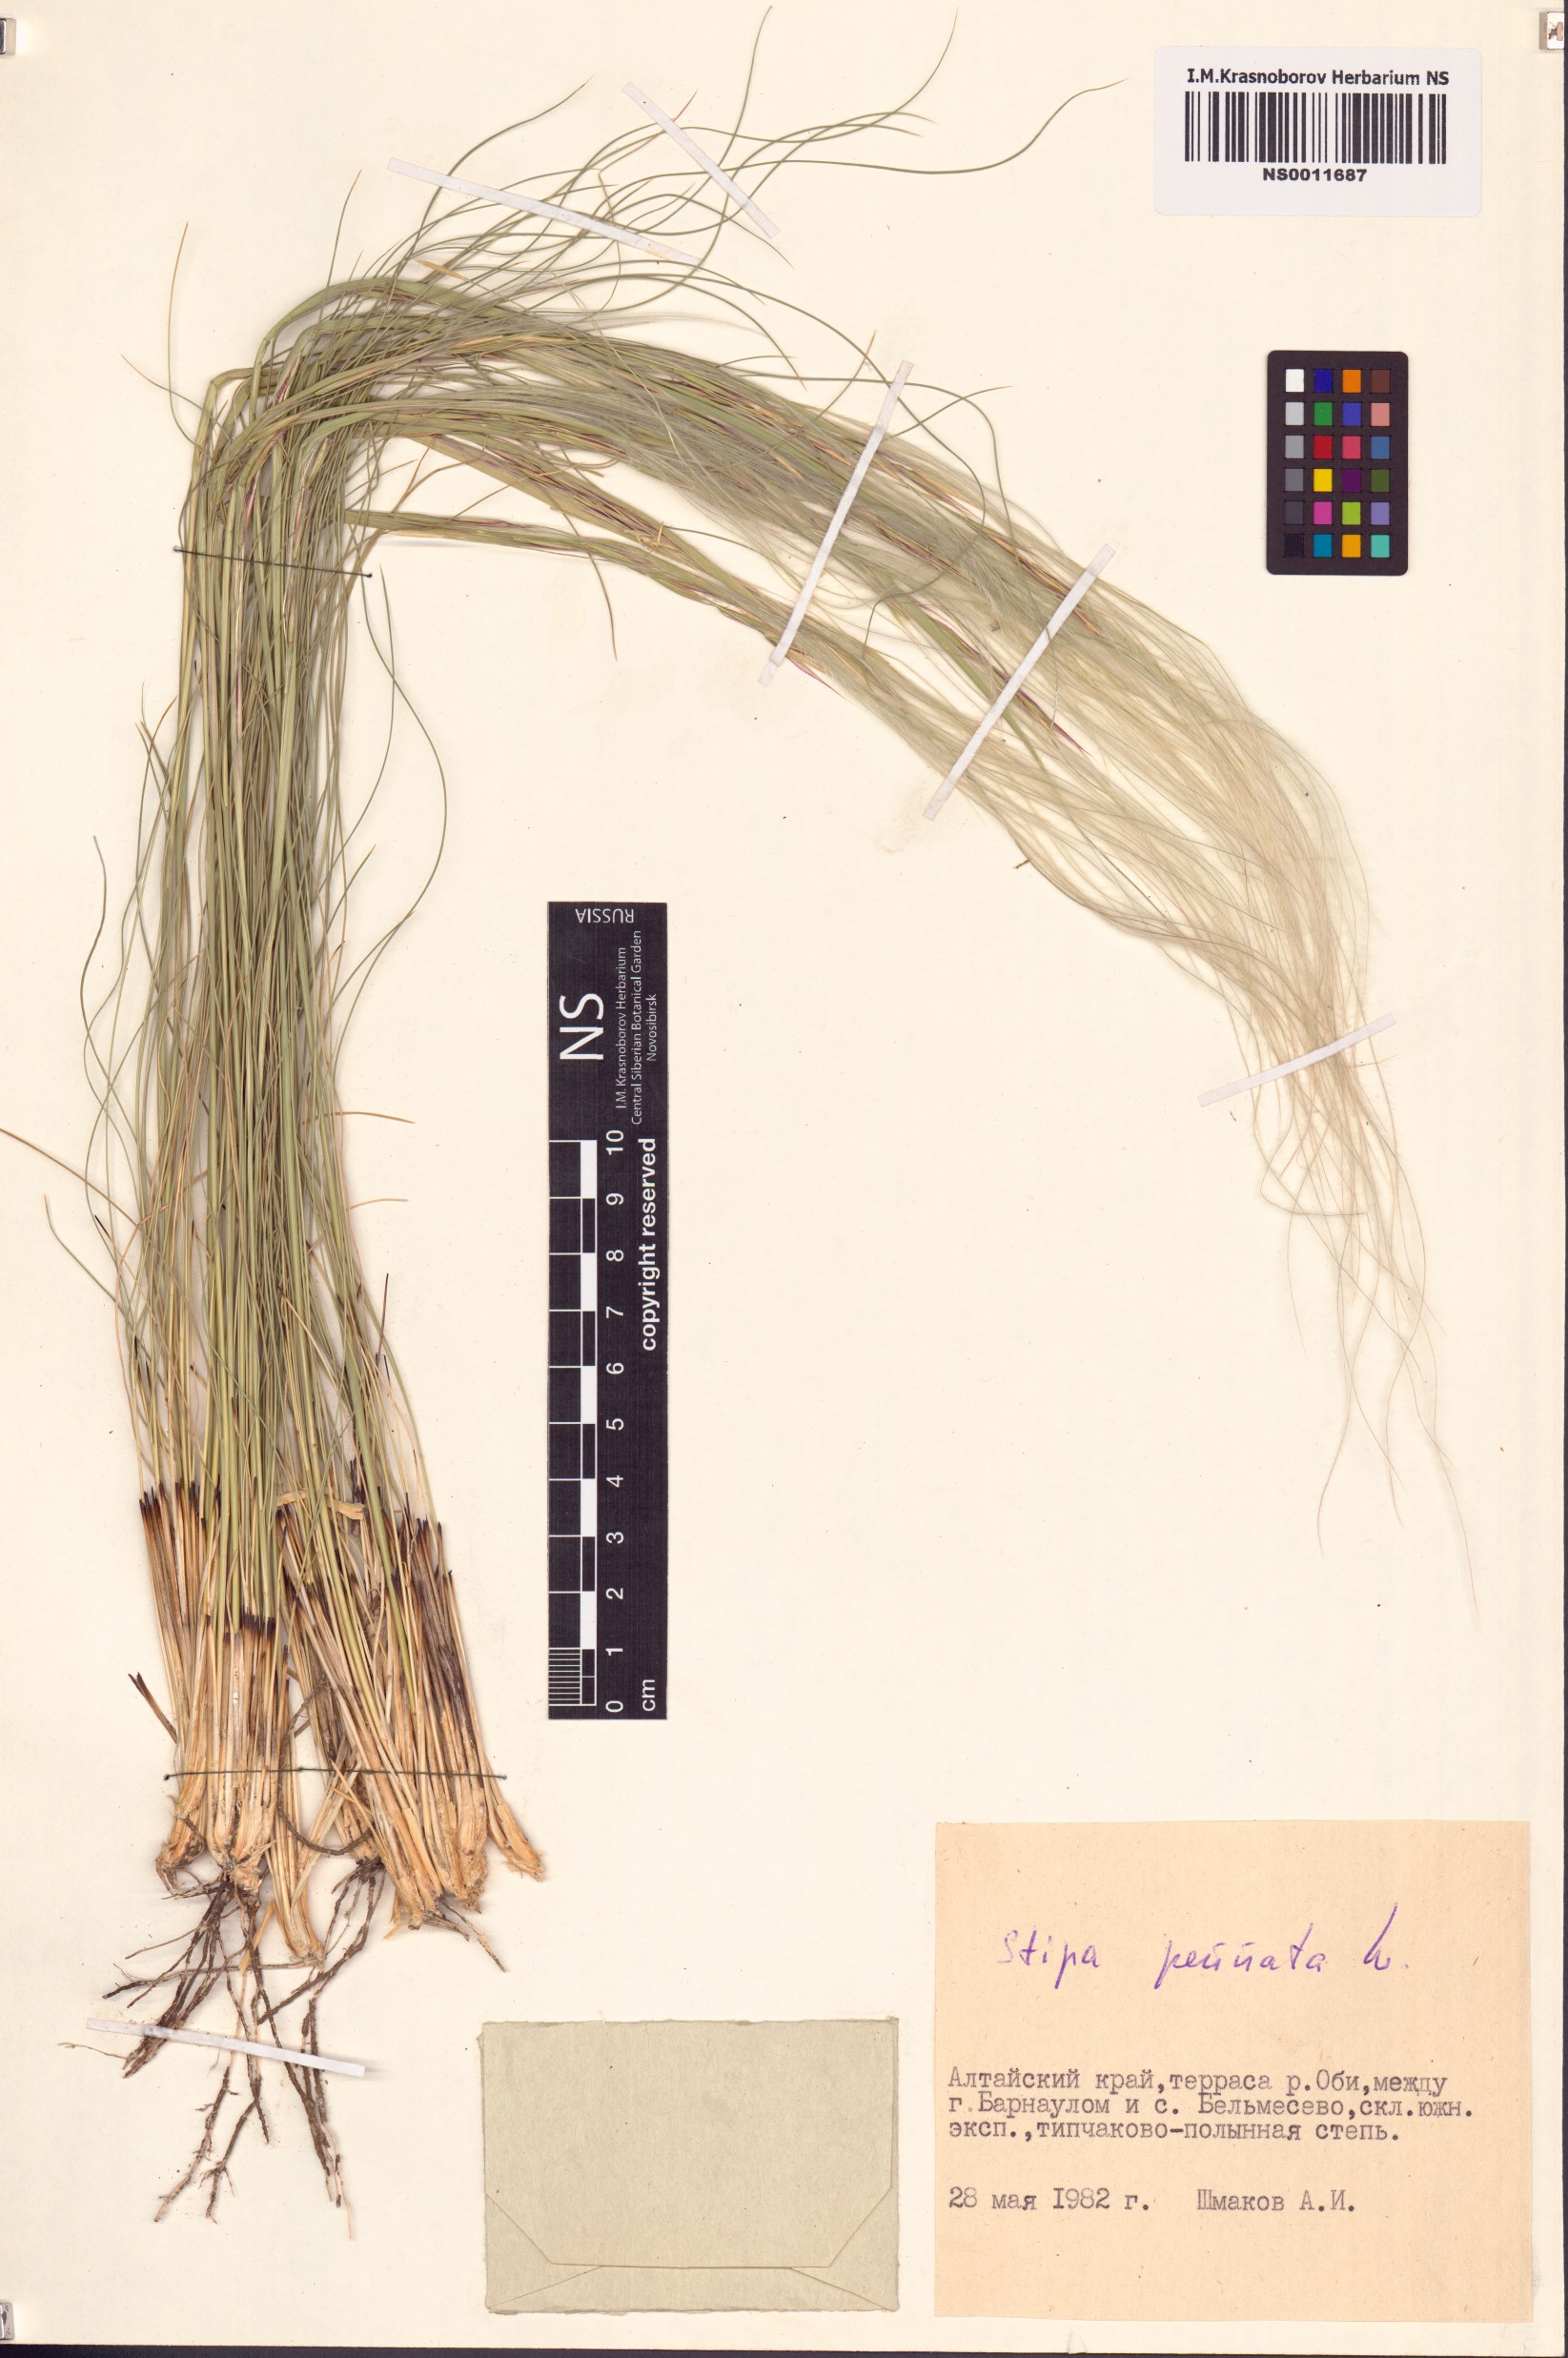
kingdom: Plantae
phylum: Tracheophyta
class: Liliopsida
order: Poales
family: Poaceae
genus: Stipa
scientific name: Stipa pennata
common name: European feather grass
